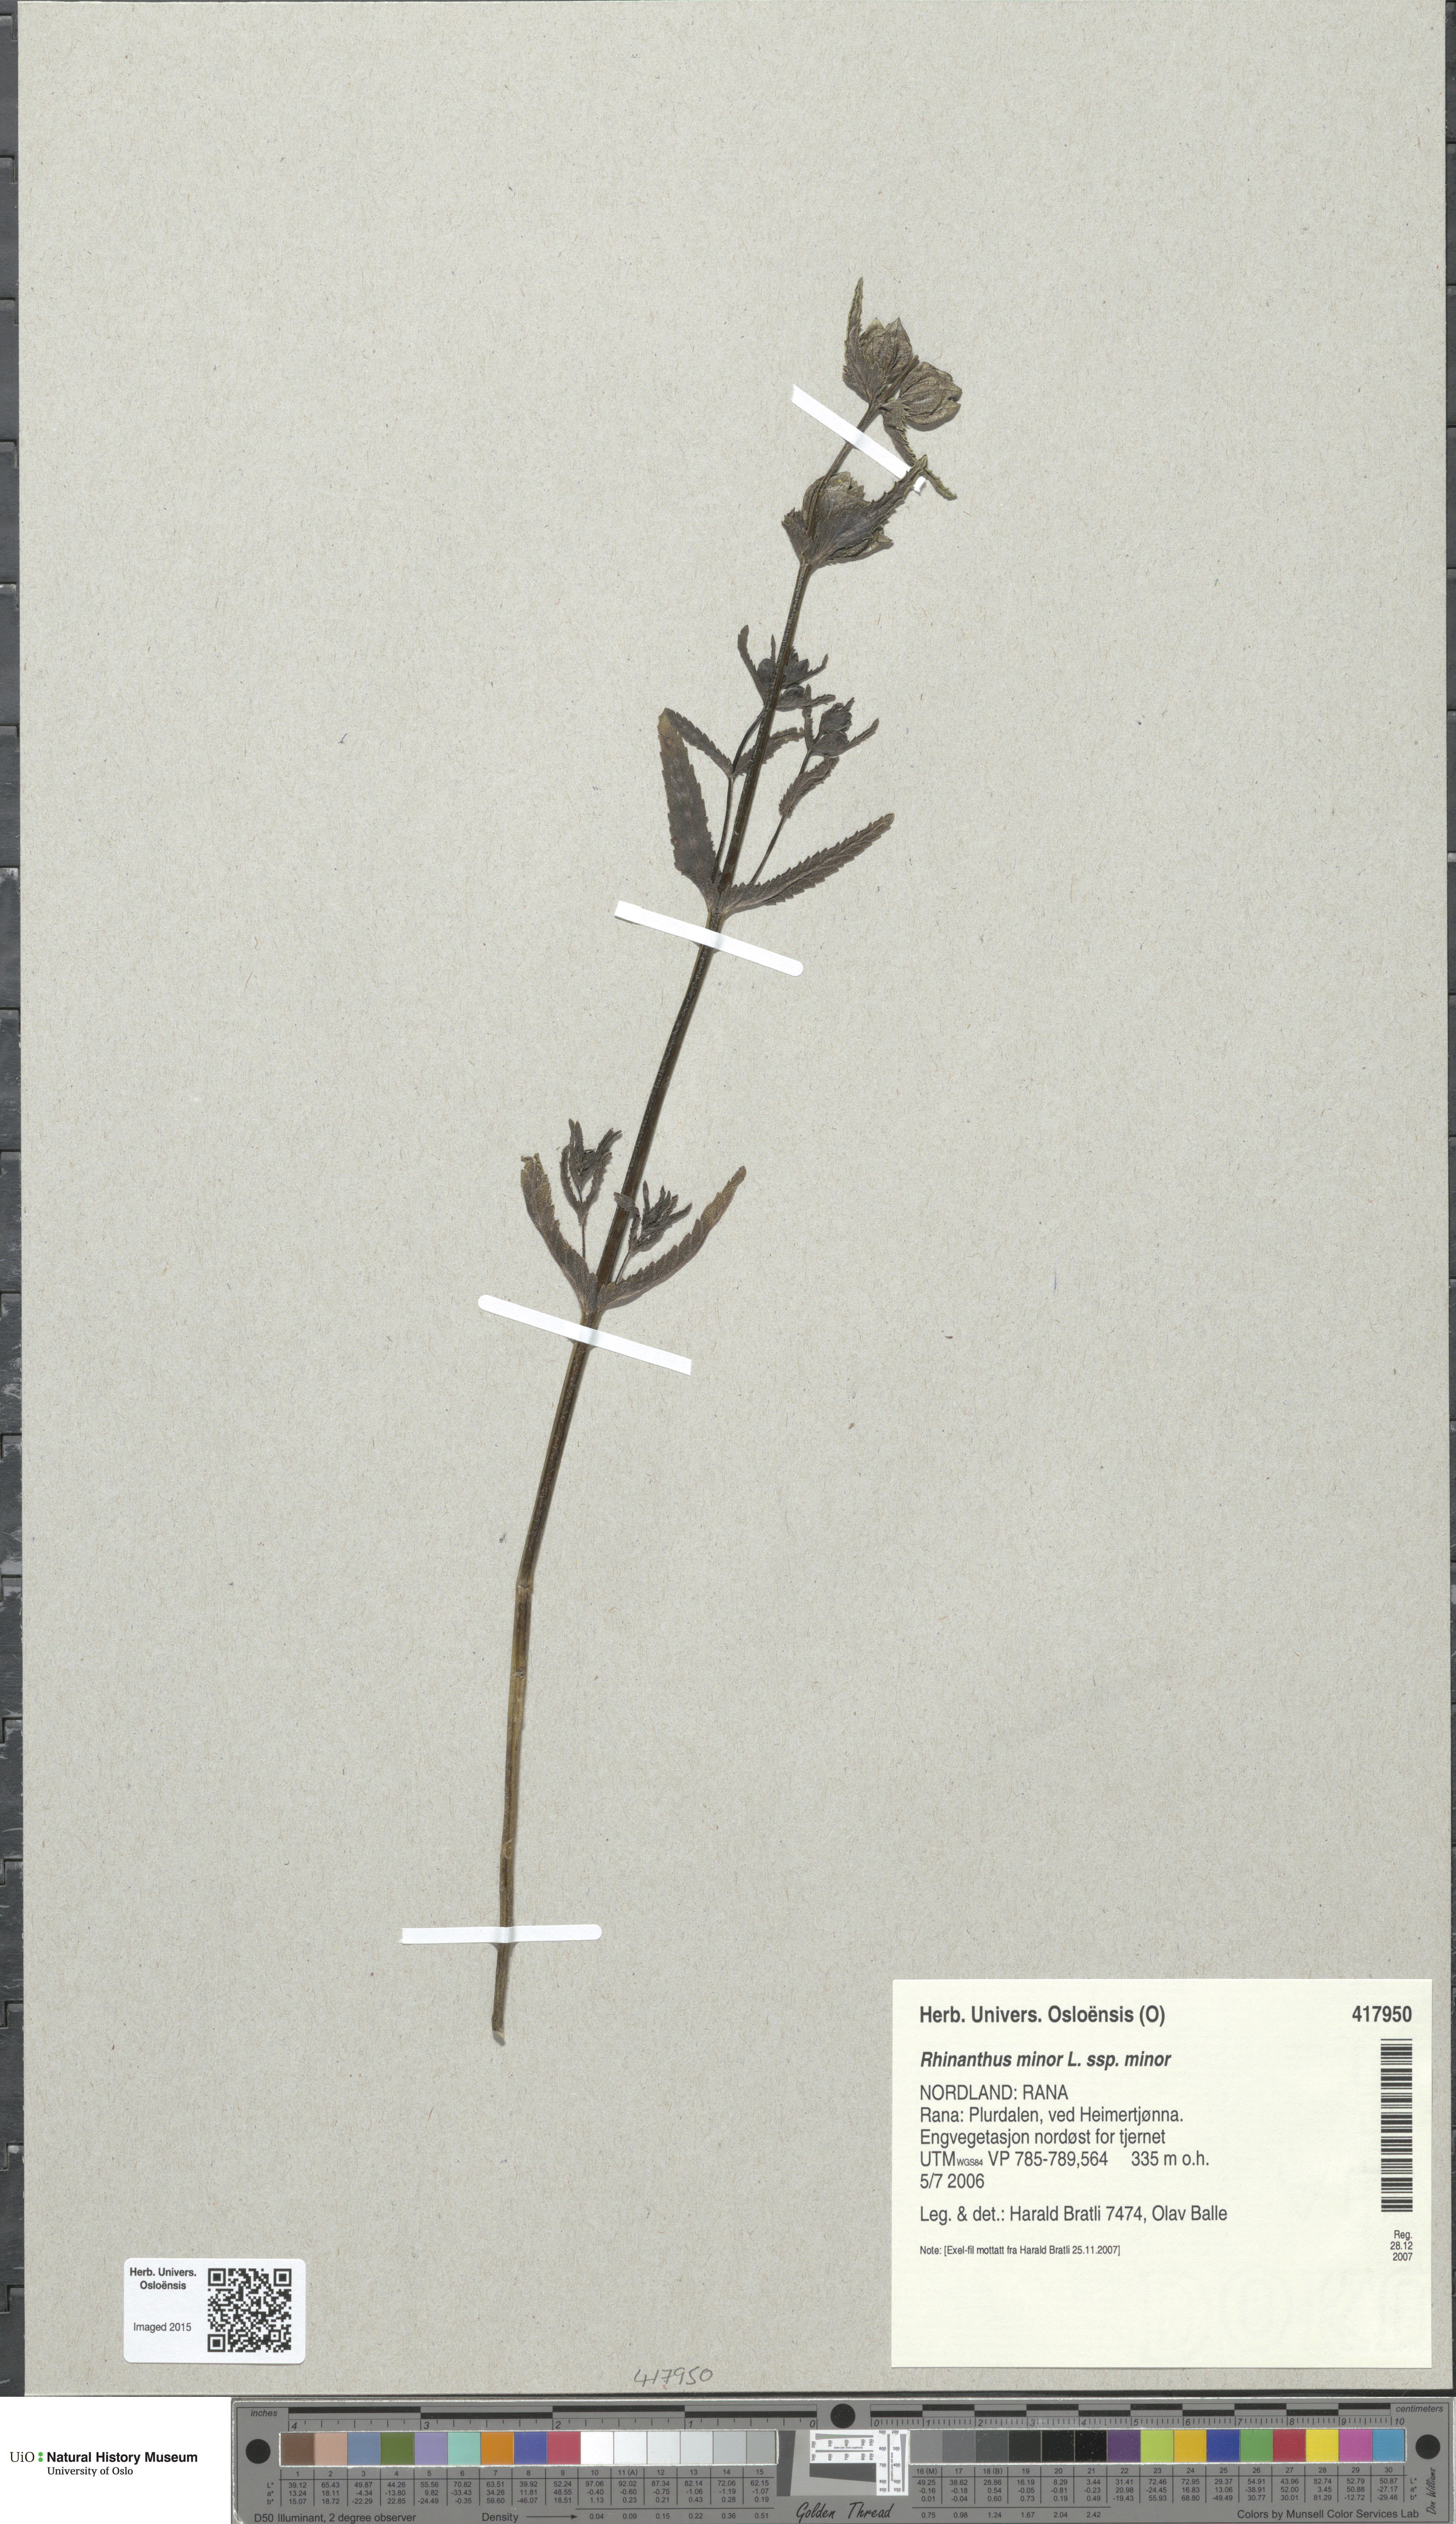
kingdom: Plantae
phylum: Tracheophyta
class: Magnoliopsida
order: Lamiales
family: Orobanchaceae
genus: Rhinanthus
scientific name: Rhinanthus minor
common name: Yellow-rattle
